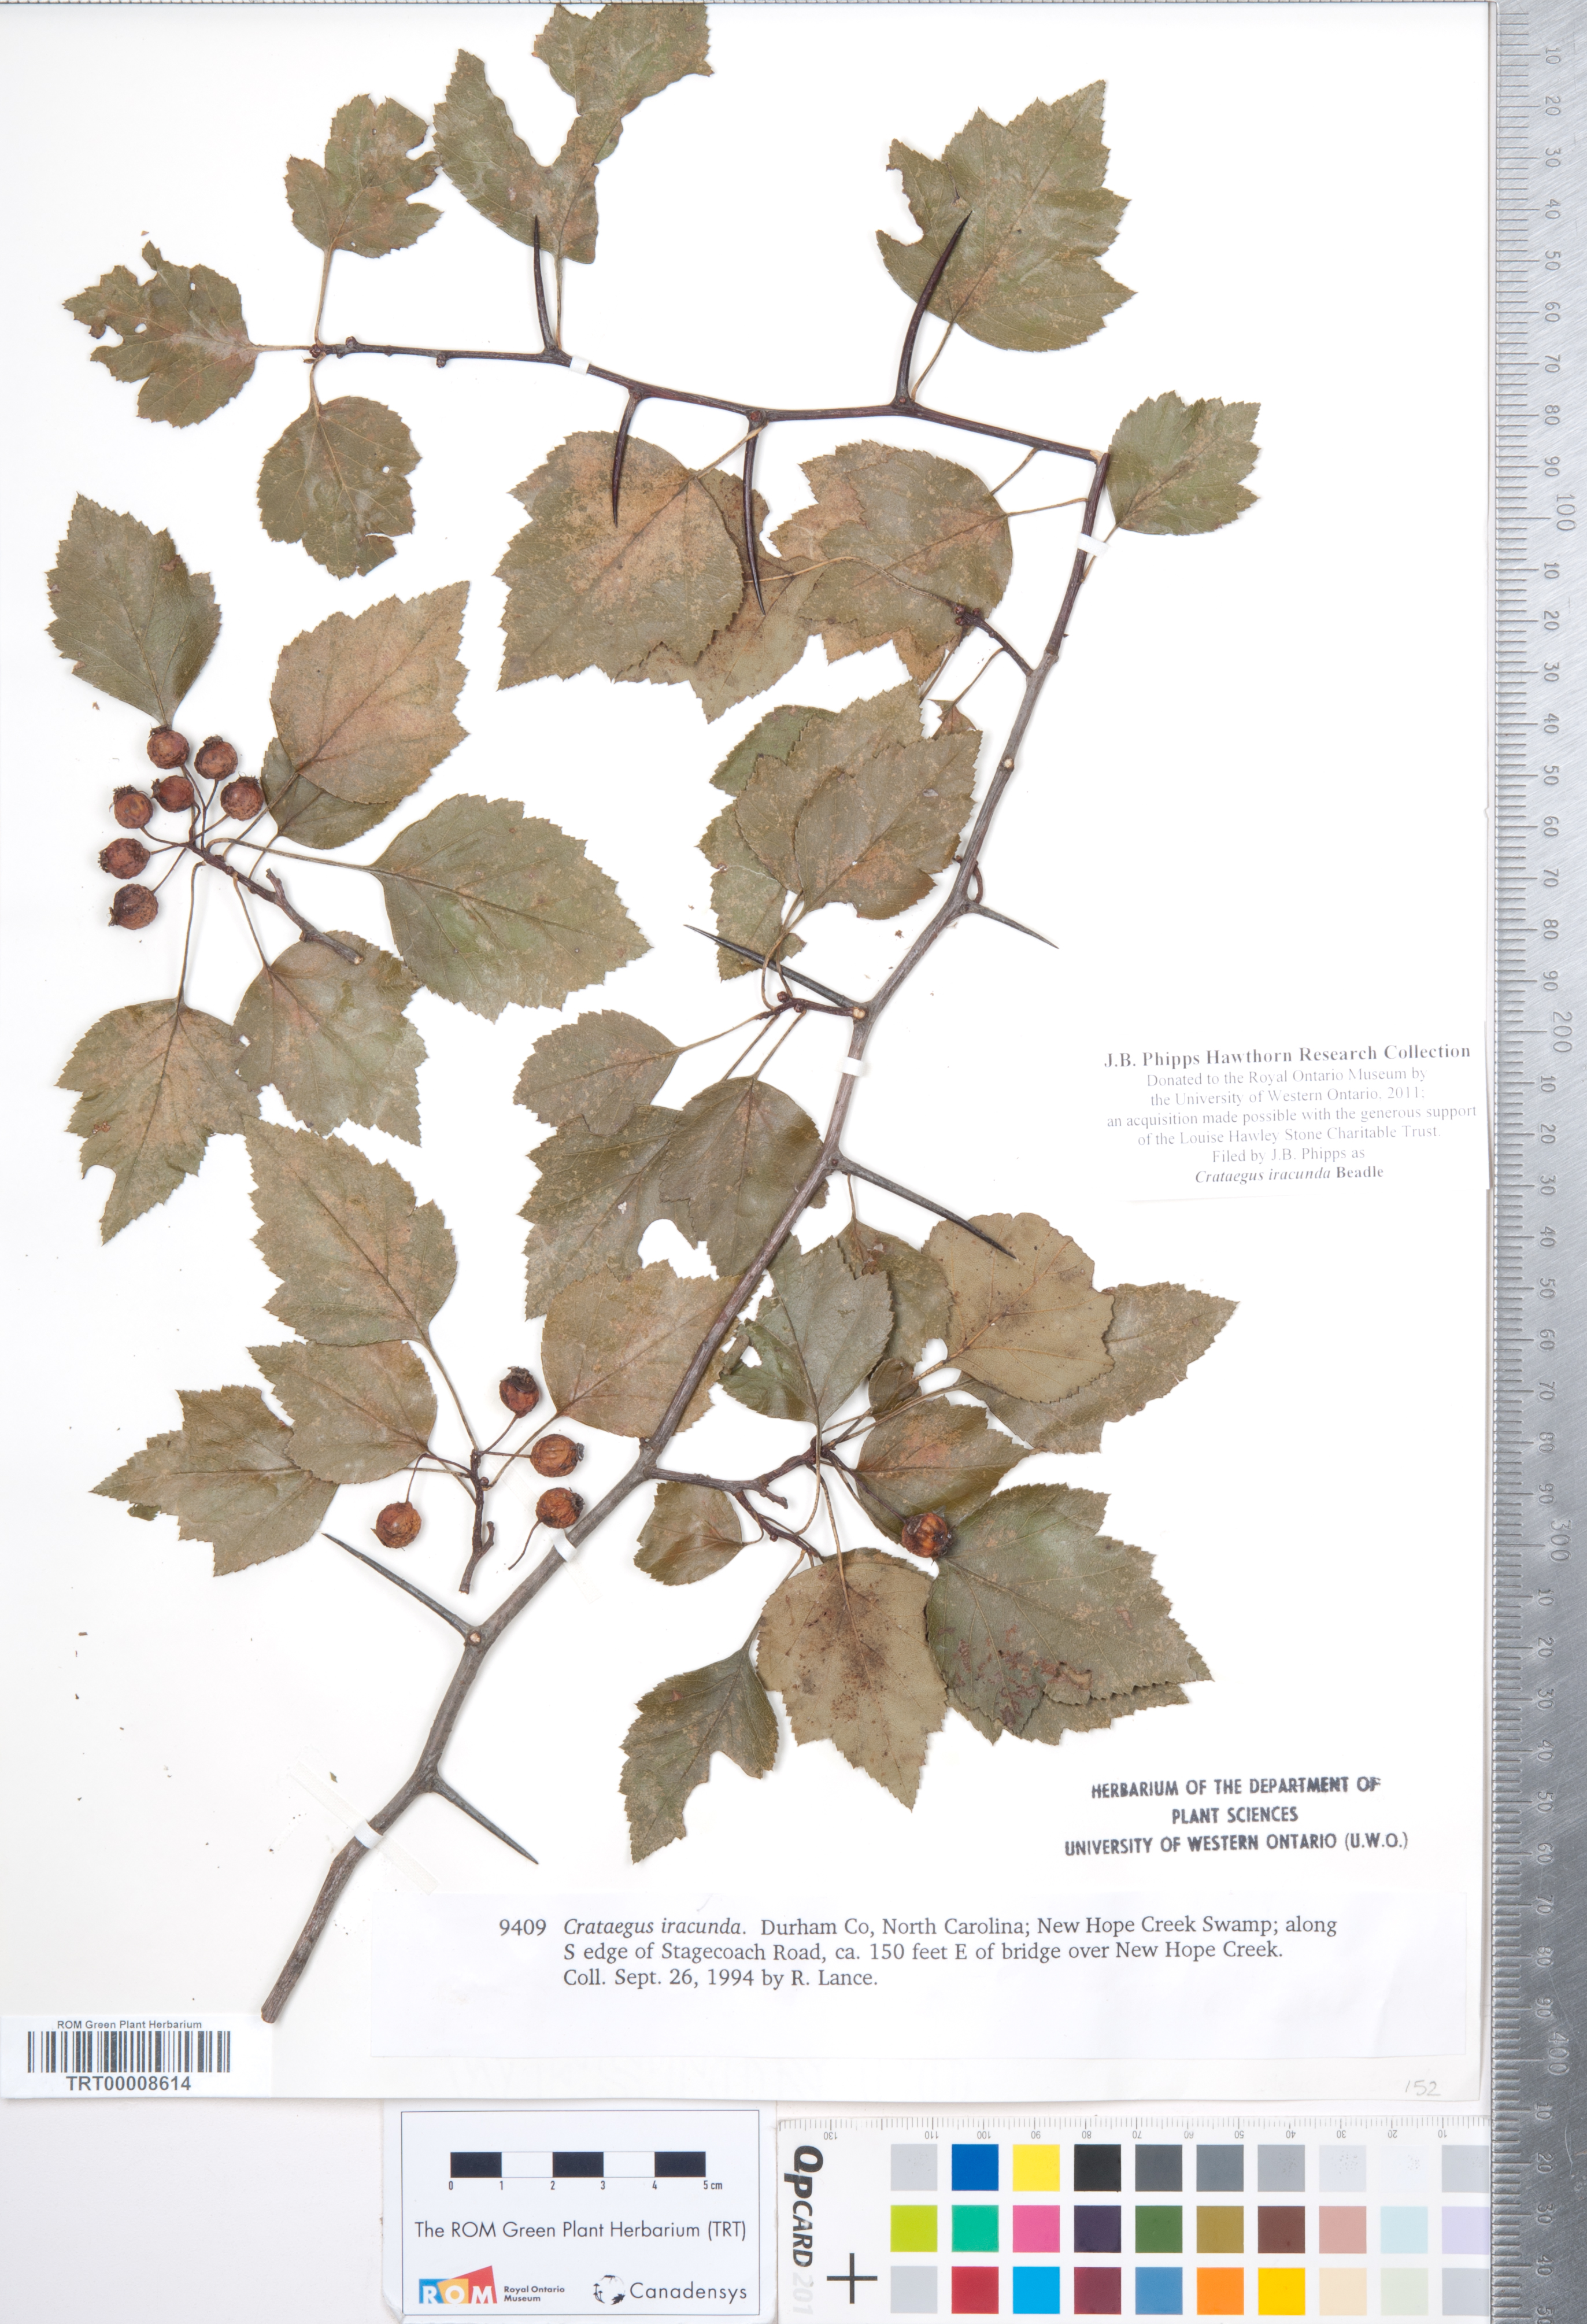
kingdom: Plantae
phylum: Tracheophyta
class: Magnoliopsida
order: Rosales
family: Rosaceae
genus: Crataegus
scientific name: Crataegus iracunda
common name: Stolon-bearing hawthorn
